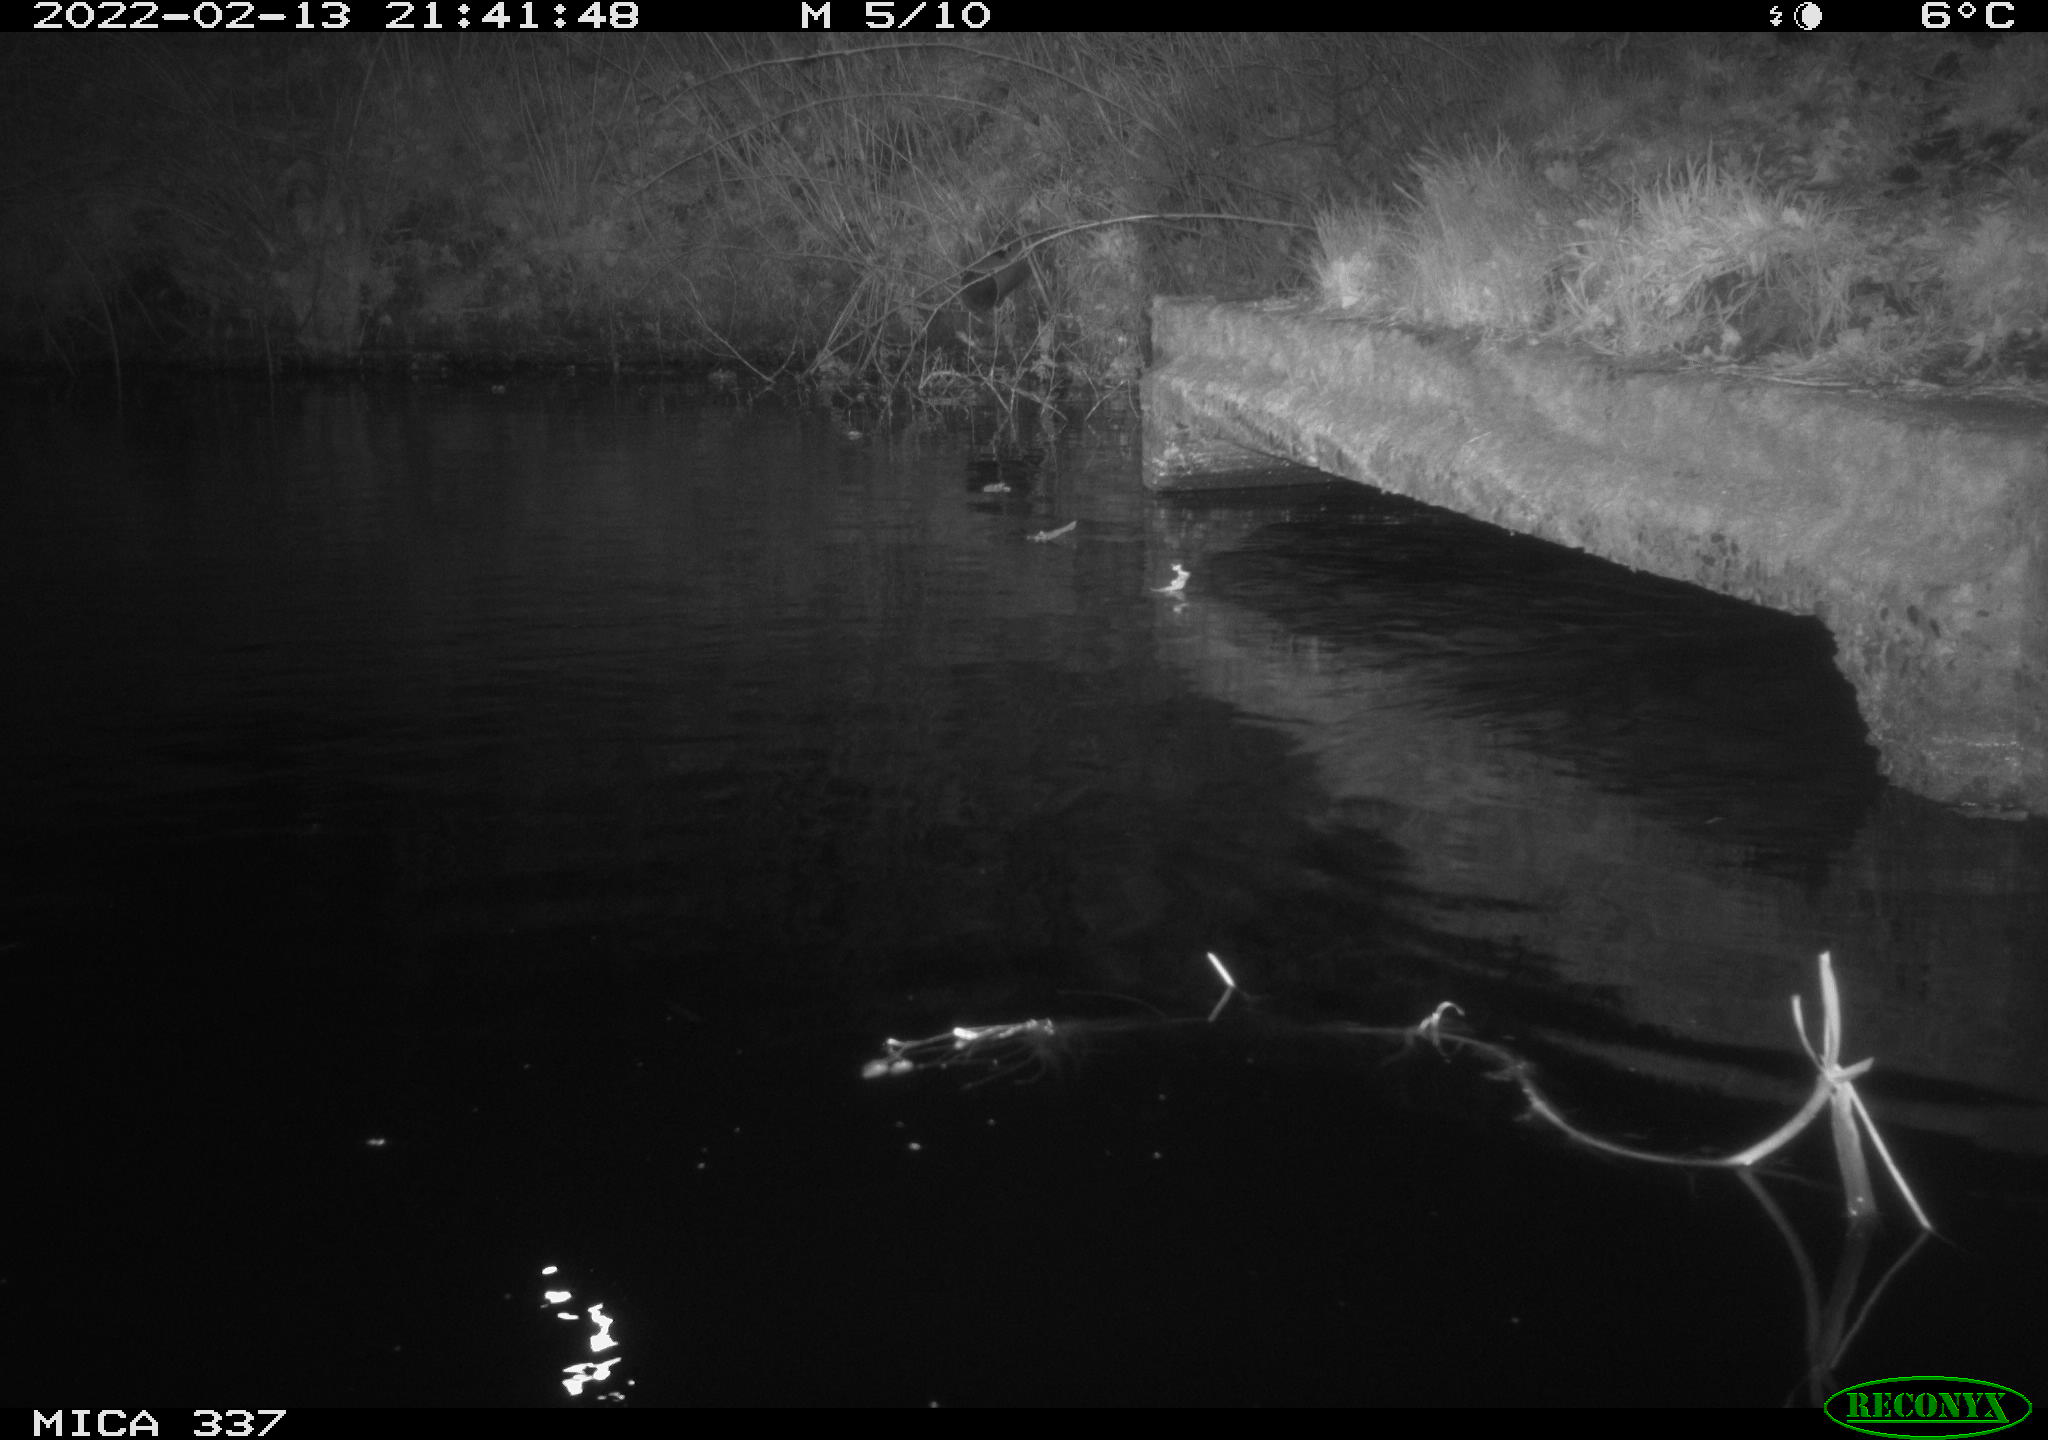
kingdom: Animalia
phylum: Chordata
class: Mammalia
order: Rodentia
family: Muridae
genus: Rattus
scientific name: Rattus norvegicus
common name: Brown rat
